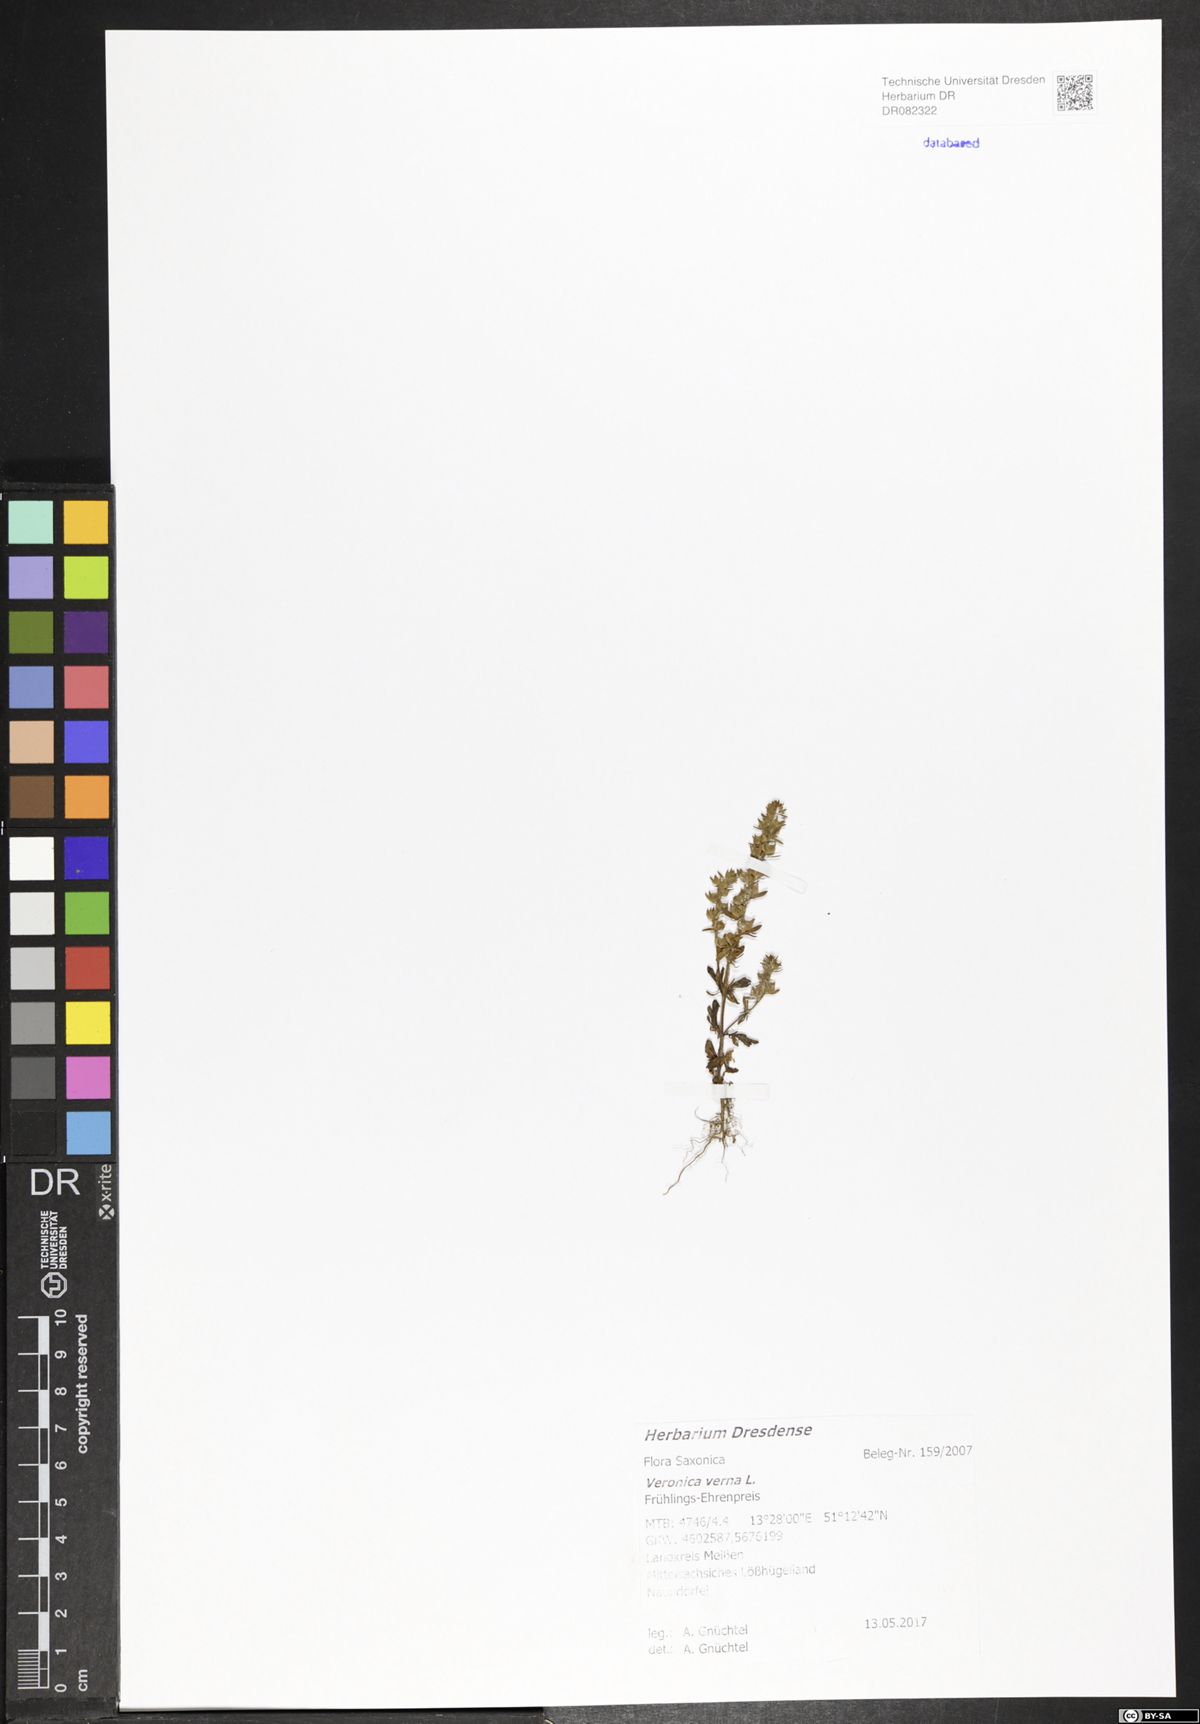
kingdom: Plantae
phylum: Tracheophyta
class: Magnoliopsida
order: Lamiales
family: Plantaginaceae
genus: Veronica
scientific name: Veronica verna
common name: Spring speedwell
